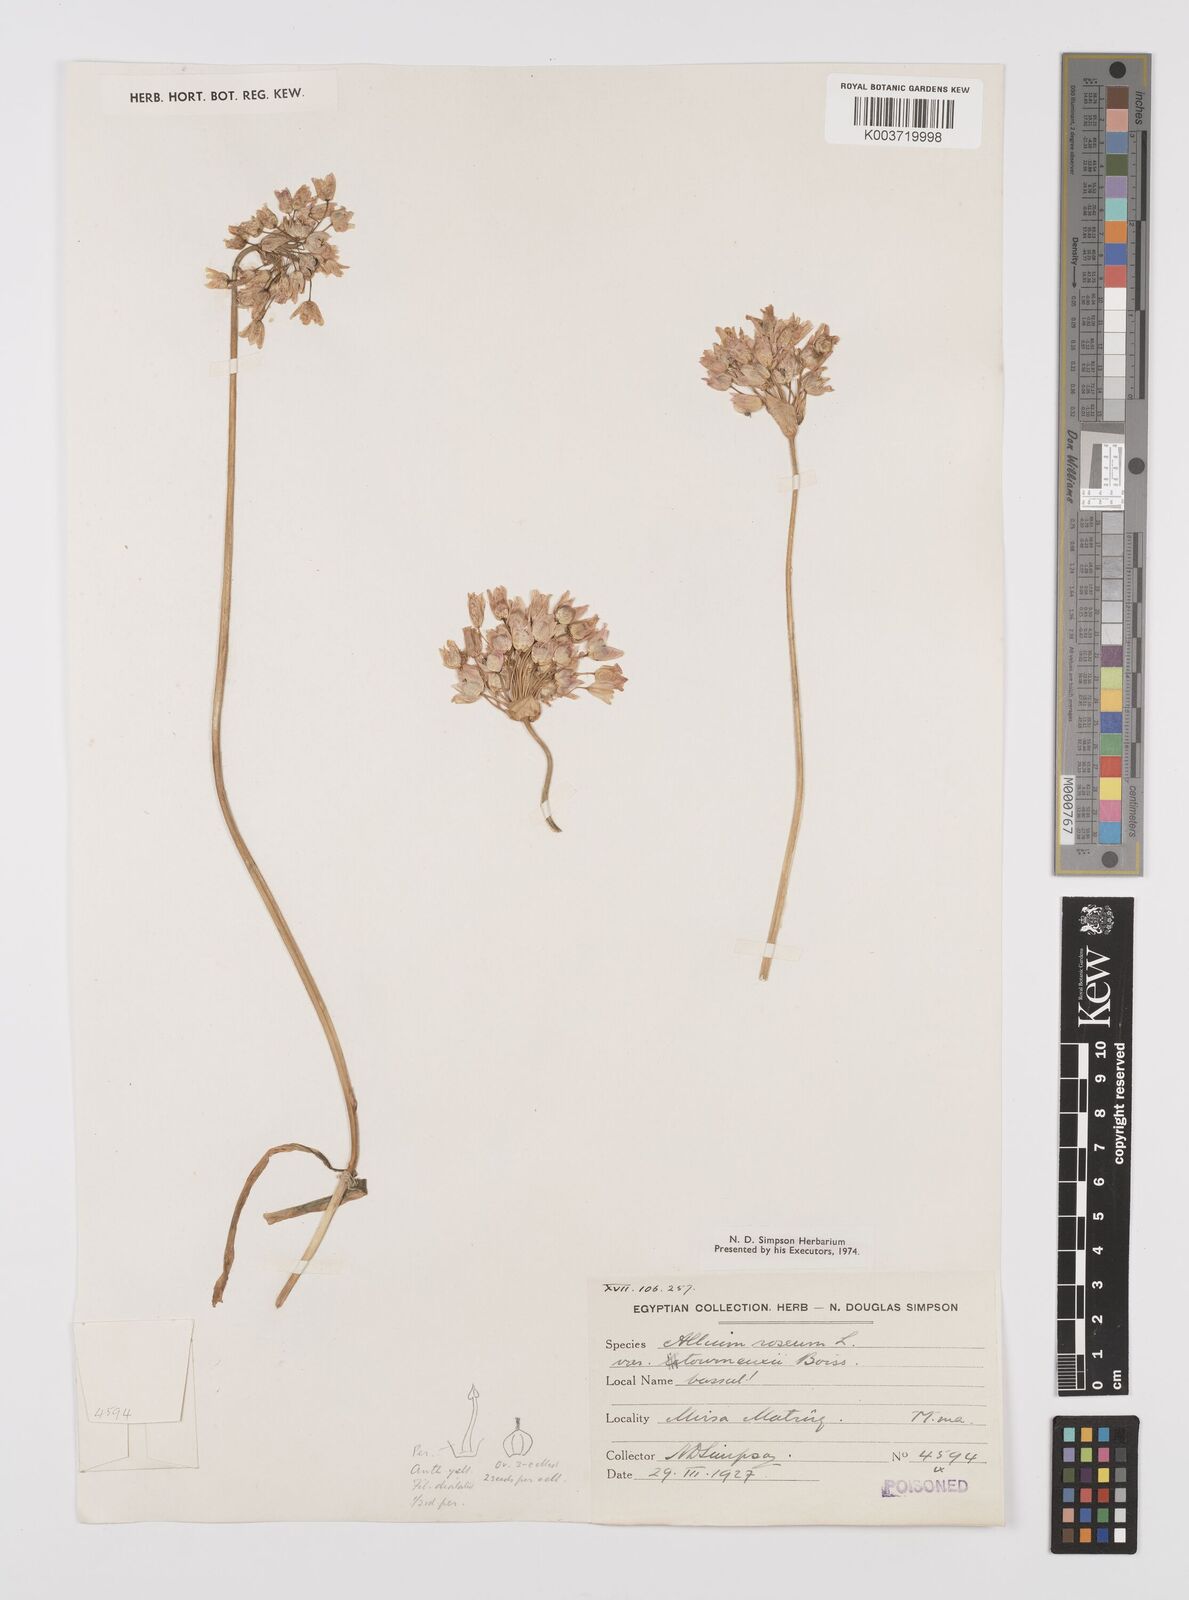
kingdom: Plantae
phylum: Tracheophyta
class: Liliopsida
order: Asparagales
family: Amaryllidaceae
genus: Allium
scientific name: Allium roseum
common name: Rosy garlic
